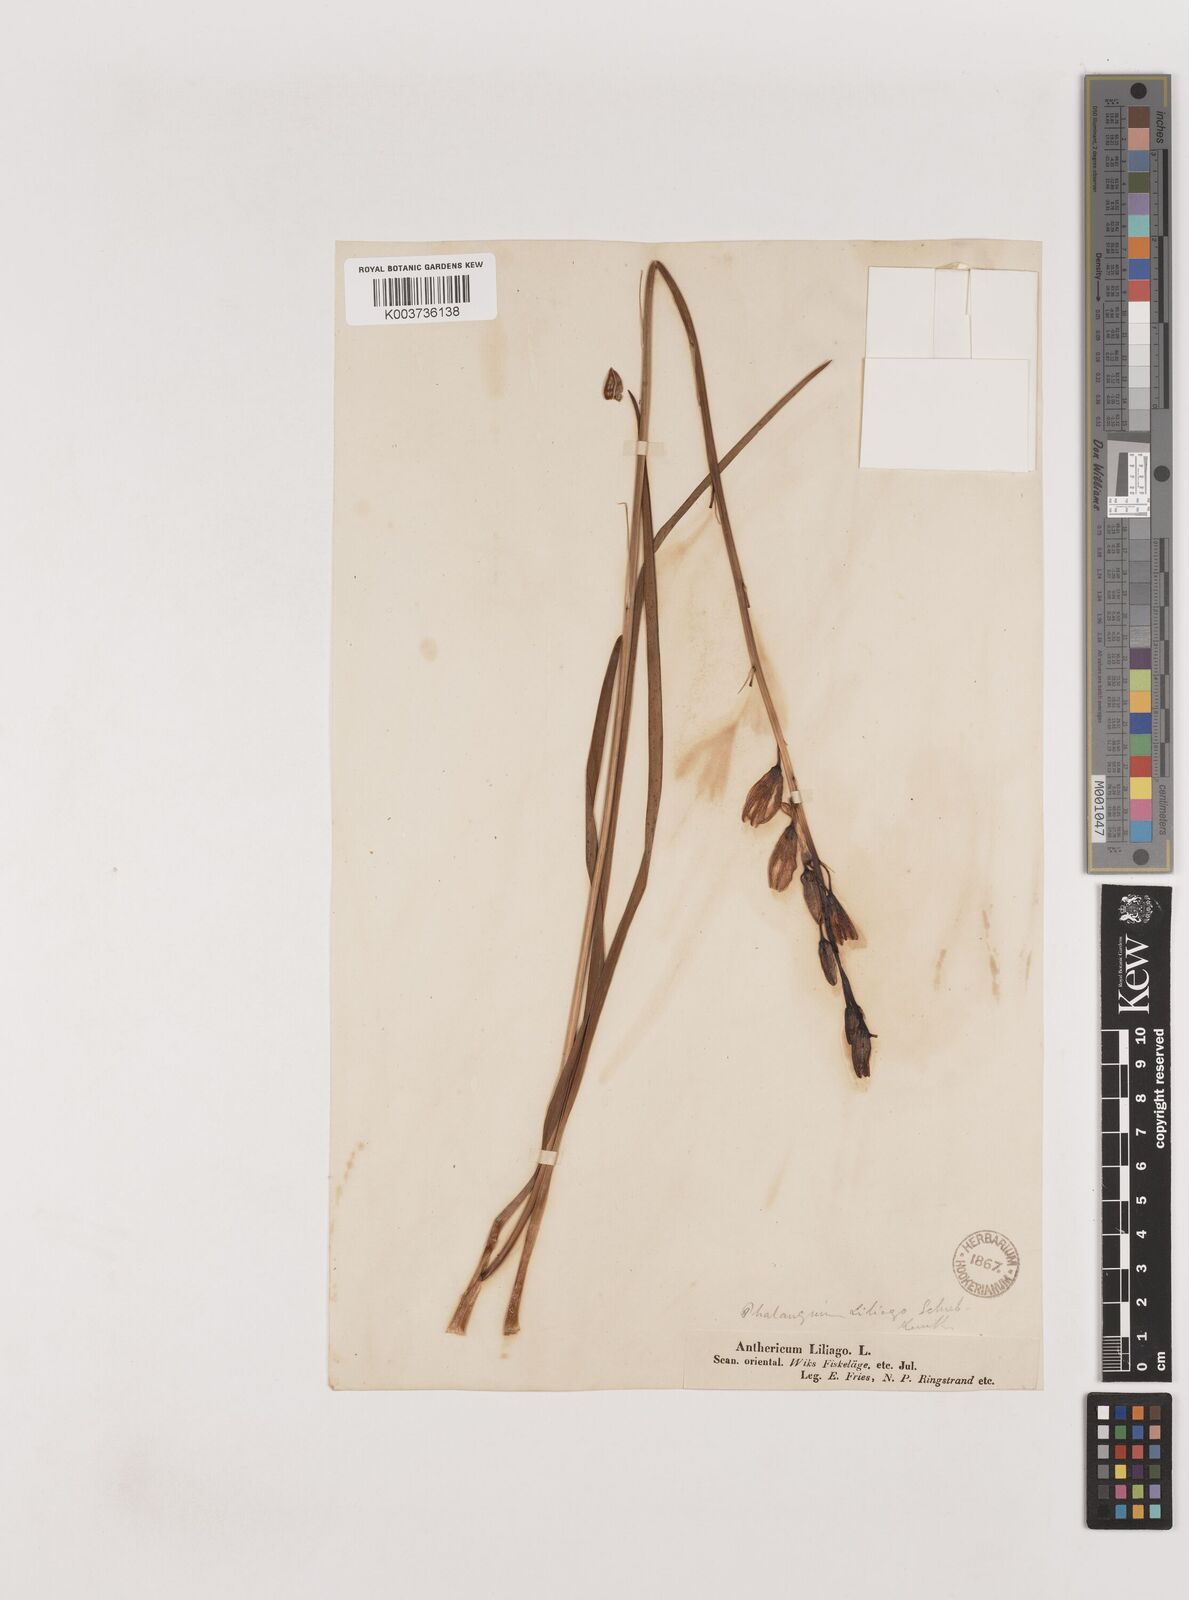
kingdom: Plantae
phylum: Tracheophyta
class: Liliopsida
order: Asparagales
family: Asparagaceae
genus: Anthericum
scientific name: Anthericum liliago
